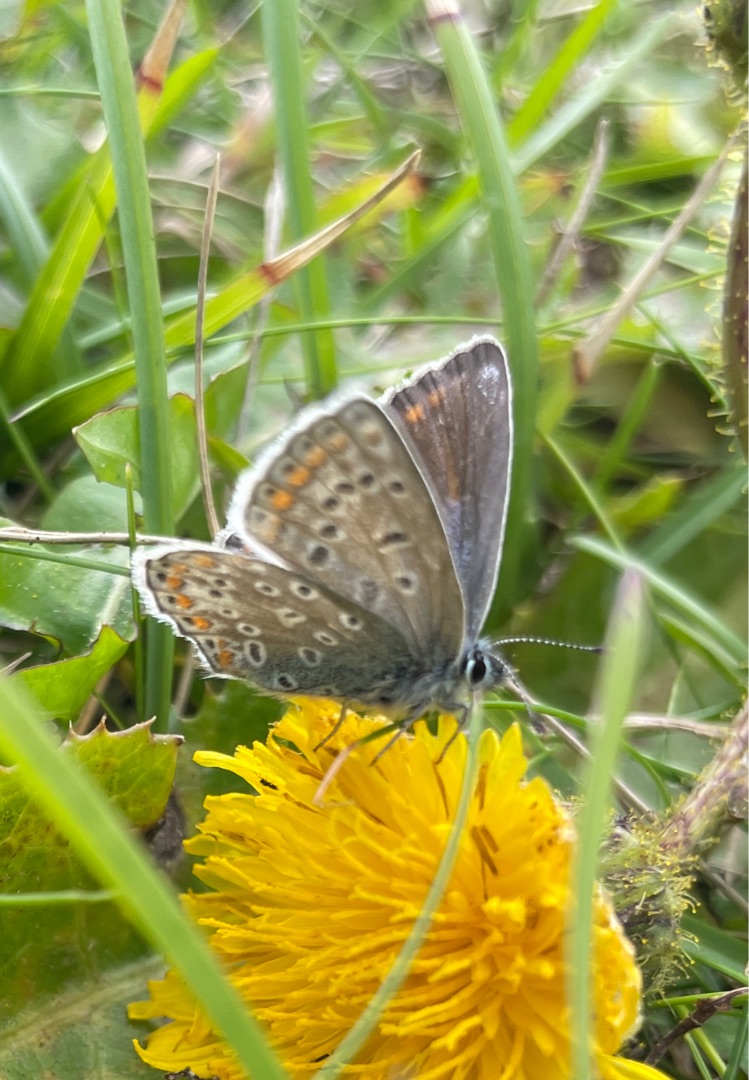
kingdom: Animalia
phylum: Arthropoda
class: Insecta
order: Lepidoptera
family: Lycaenidae
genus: Polyommatus
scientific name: Polyommatus icarus
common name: Almindelig blåfugl
